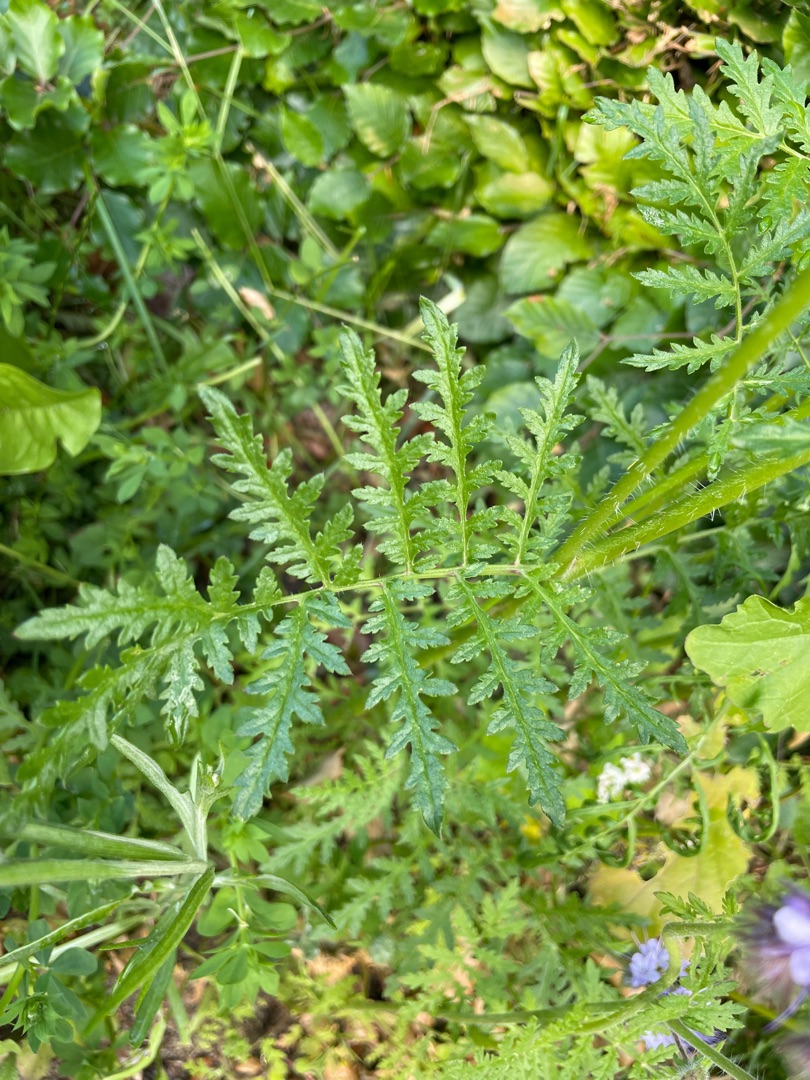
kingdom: Plantae
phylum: Tracheophyta
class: Magnoliopsida
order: Boraginales
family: Hydrophyllaceae
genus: Phacelia
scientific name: Phacelia tanacetifolia
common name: Honningurt
